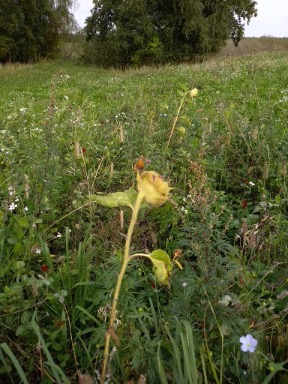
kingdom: Animalia
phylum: Arthropoda
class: Insecta
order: Lepidoptera
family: Lycaenidae
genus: Lycaena
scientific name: Lycaena phlaeas
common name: Lille ildfugl
